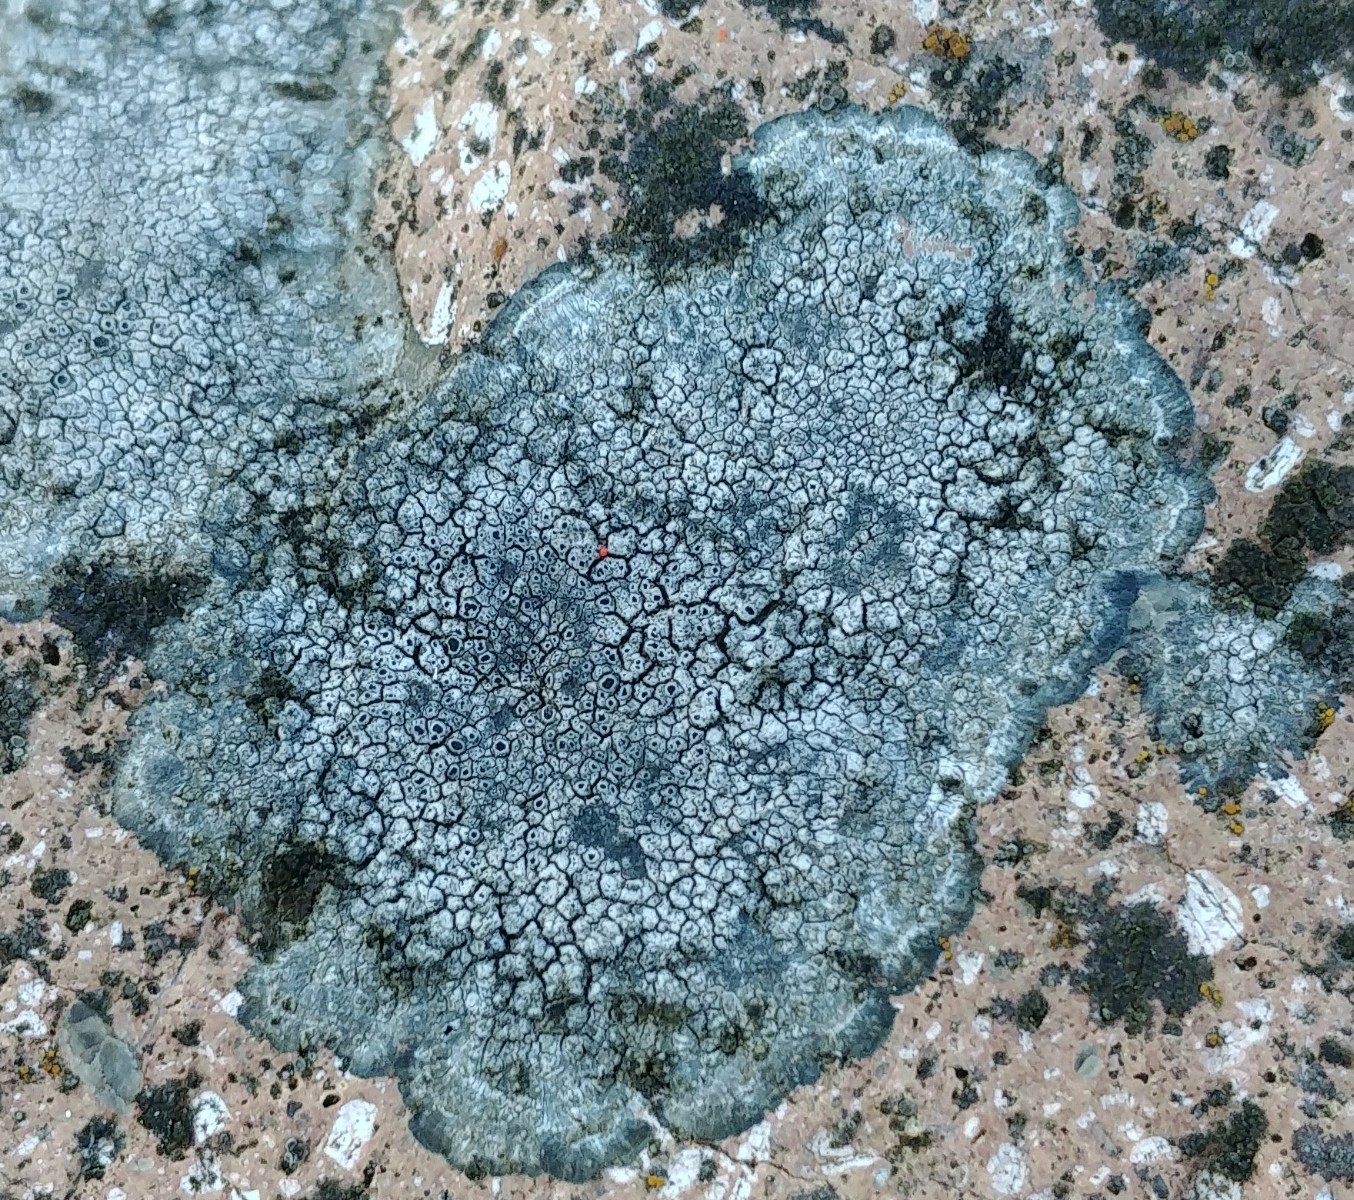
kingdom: Fungi
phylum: Ascomycota
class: Lecanoromycetes
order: Pertusariales
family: Megasporaceae
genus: Circinaria
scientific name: Circinaria caesiocinerea
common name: fuglestens-hulskivelav
